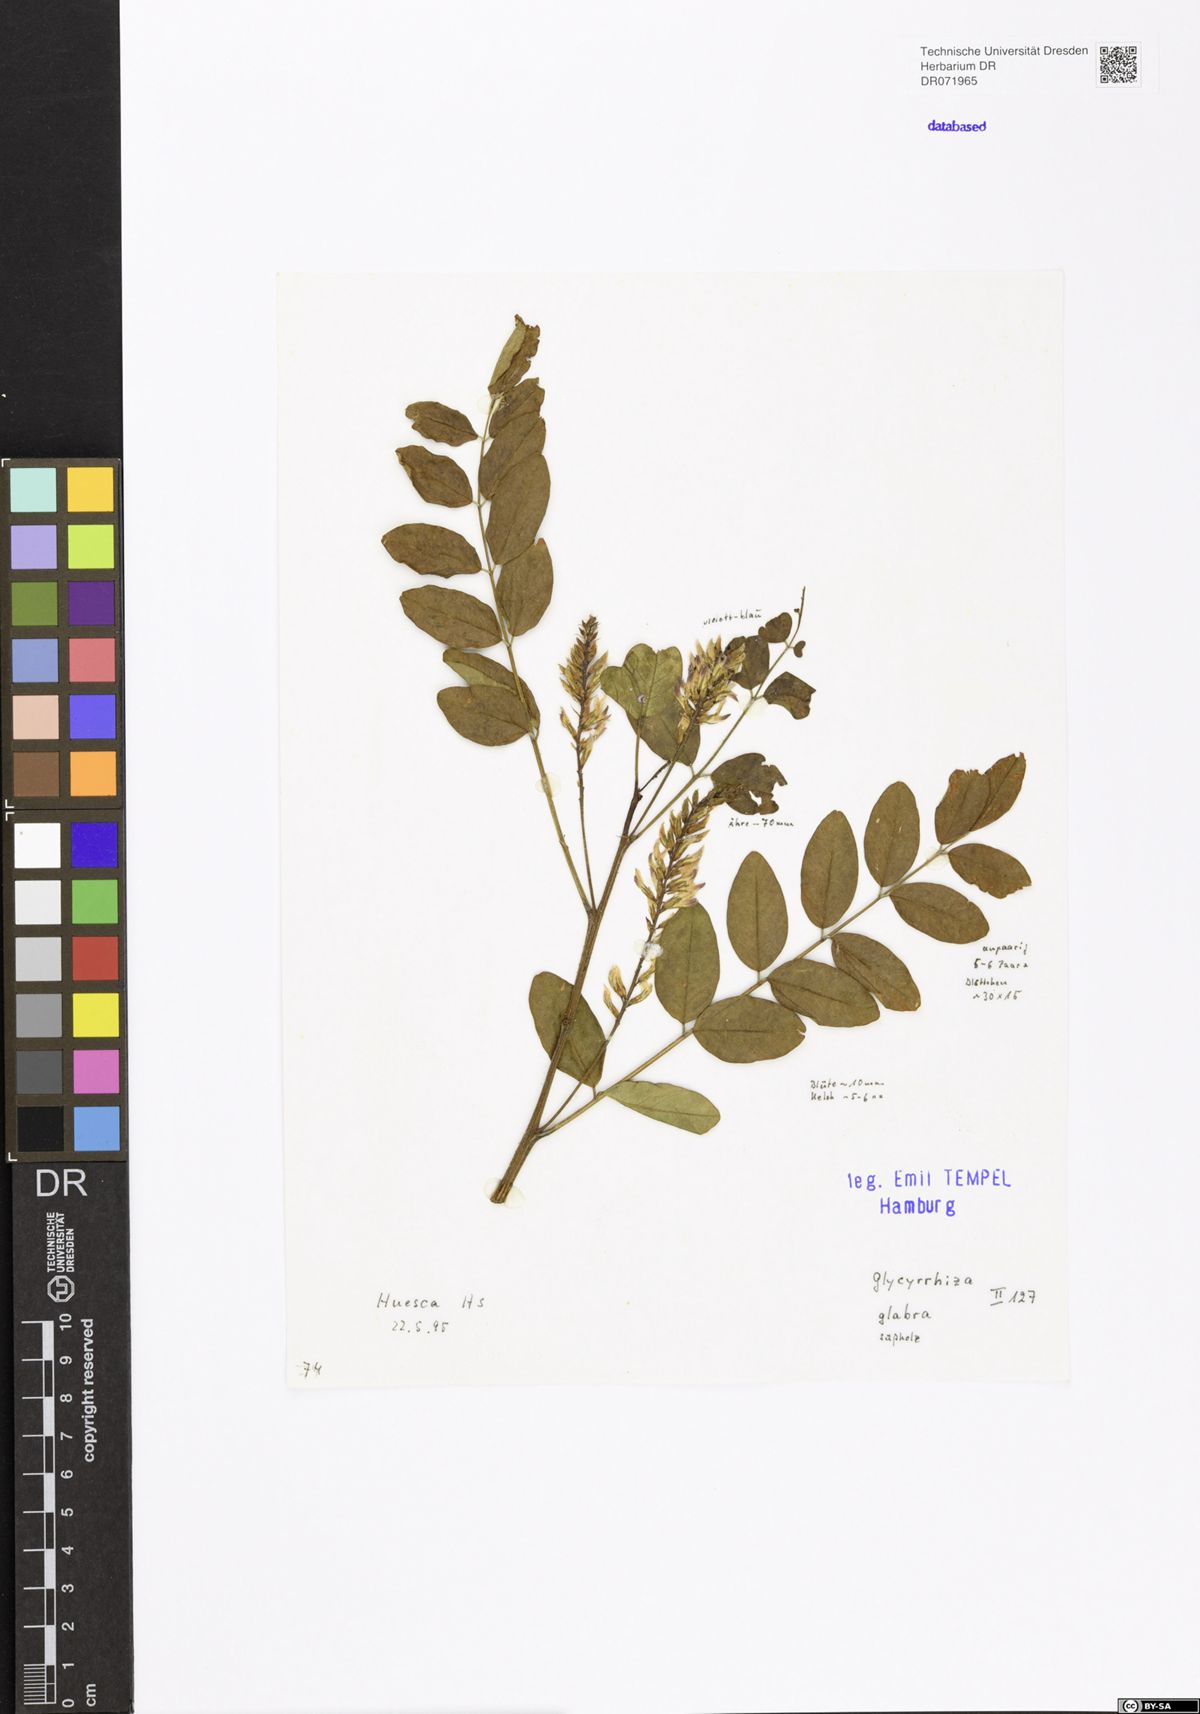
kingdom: Plantae
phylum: Tracheophyta
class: Magnoliopsida
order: Fabales
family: Fabaceae
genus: Glycyrrhiza
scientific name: Glycyrrhiza glabra
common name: Liquorice
